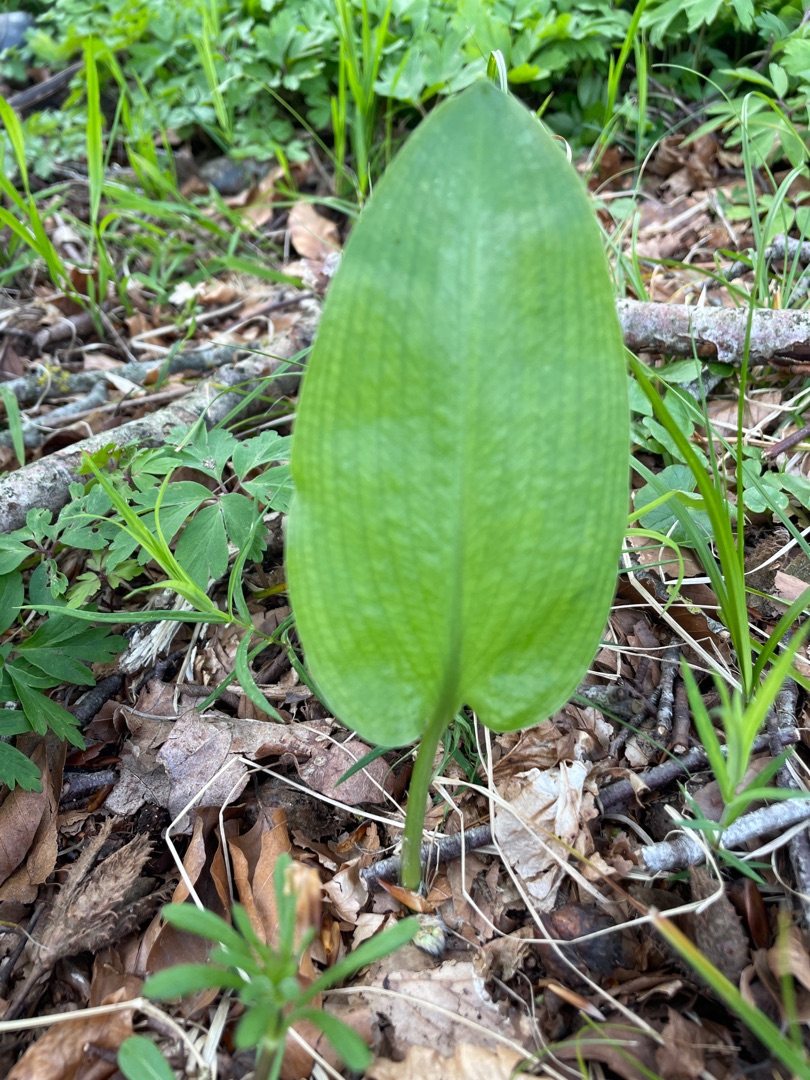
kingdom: Plantae
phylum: Tracheophyta
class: Liliopsida
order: Asparagales
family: Amaryllidaceae
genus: Allium
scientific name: Allium ursinum
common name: Rams-løg
